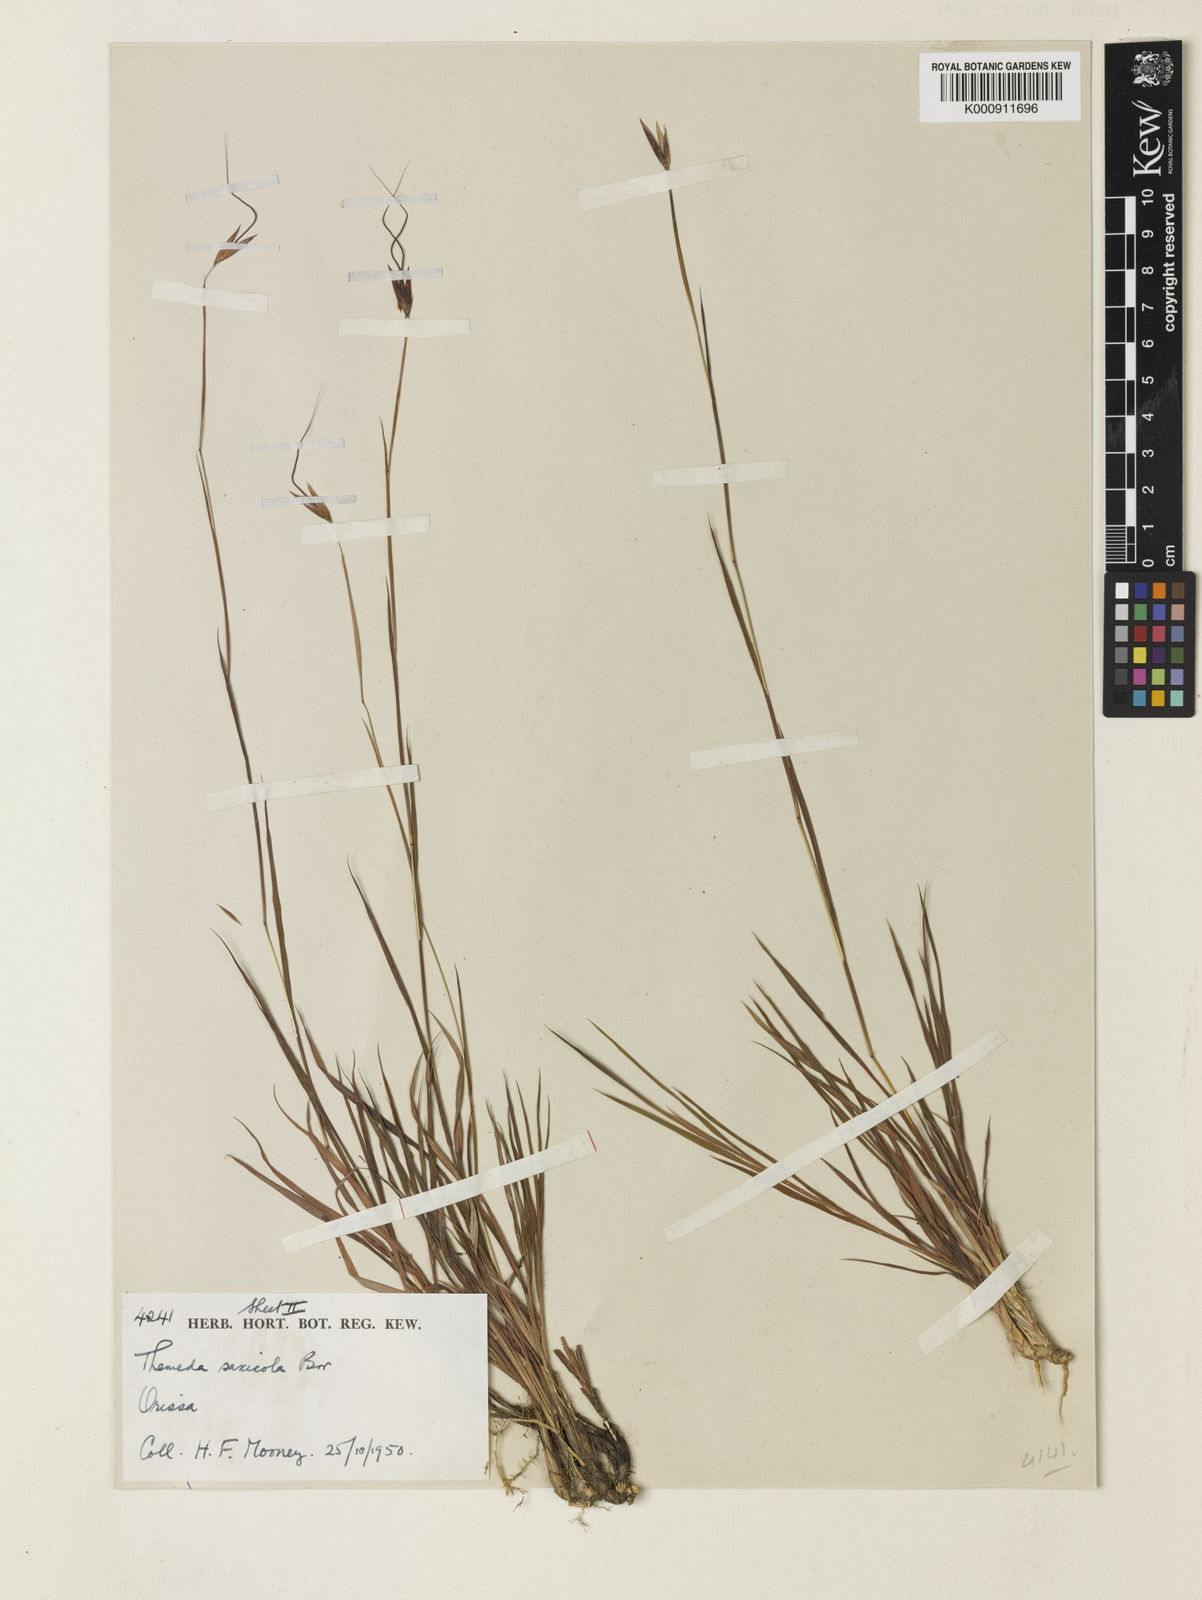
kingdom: Plantae
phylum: Tracheophyta
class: Liliopsida
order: Poales
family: Poaceae
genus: Themeda
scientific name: Themeda saxicola
